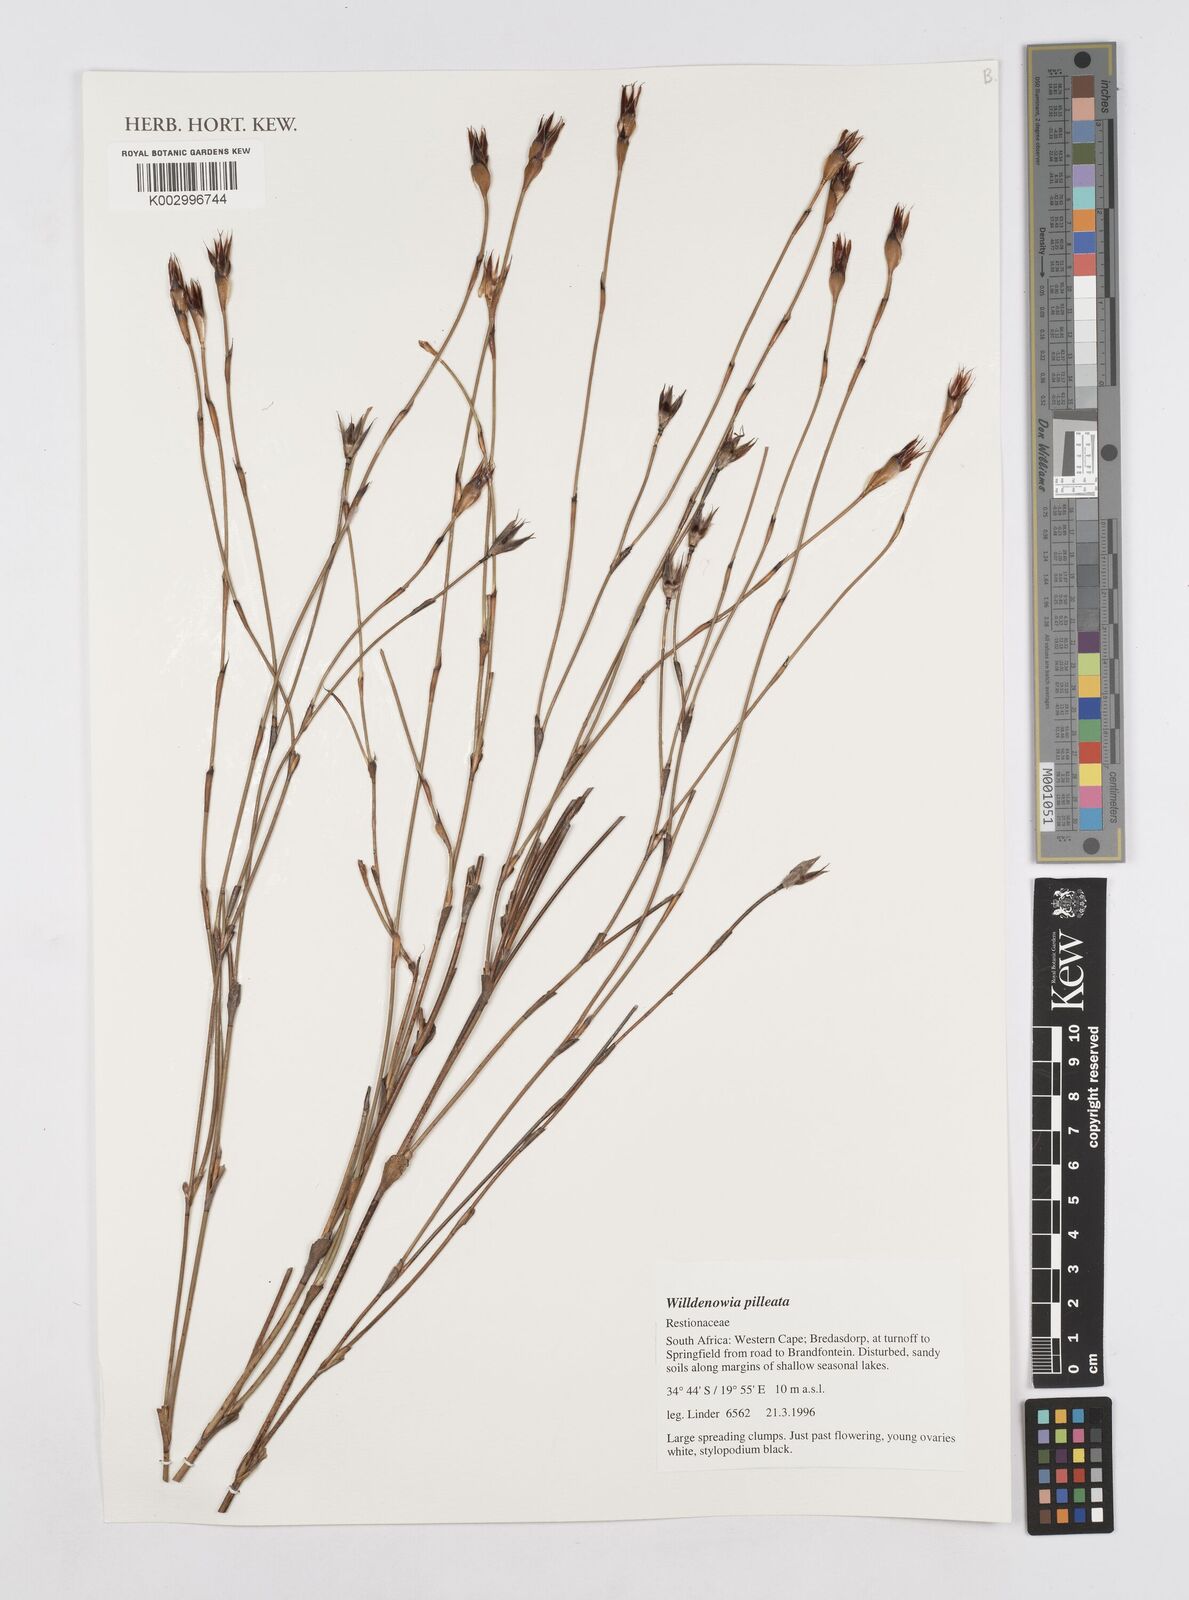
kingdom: Plantae
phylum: Tracheophyta
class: Liliopsida
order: Poales
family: Restionaceae
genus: Willdenowia
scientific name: Willdenowia pilleata
